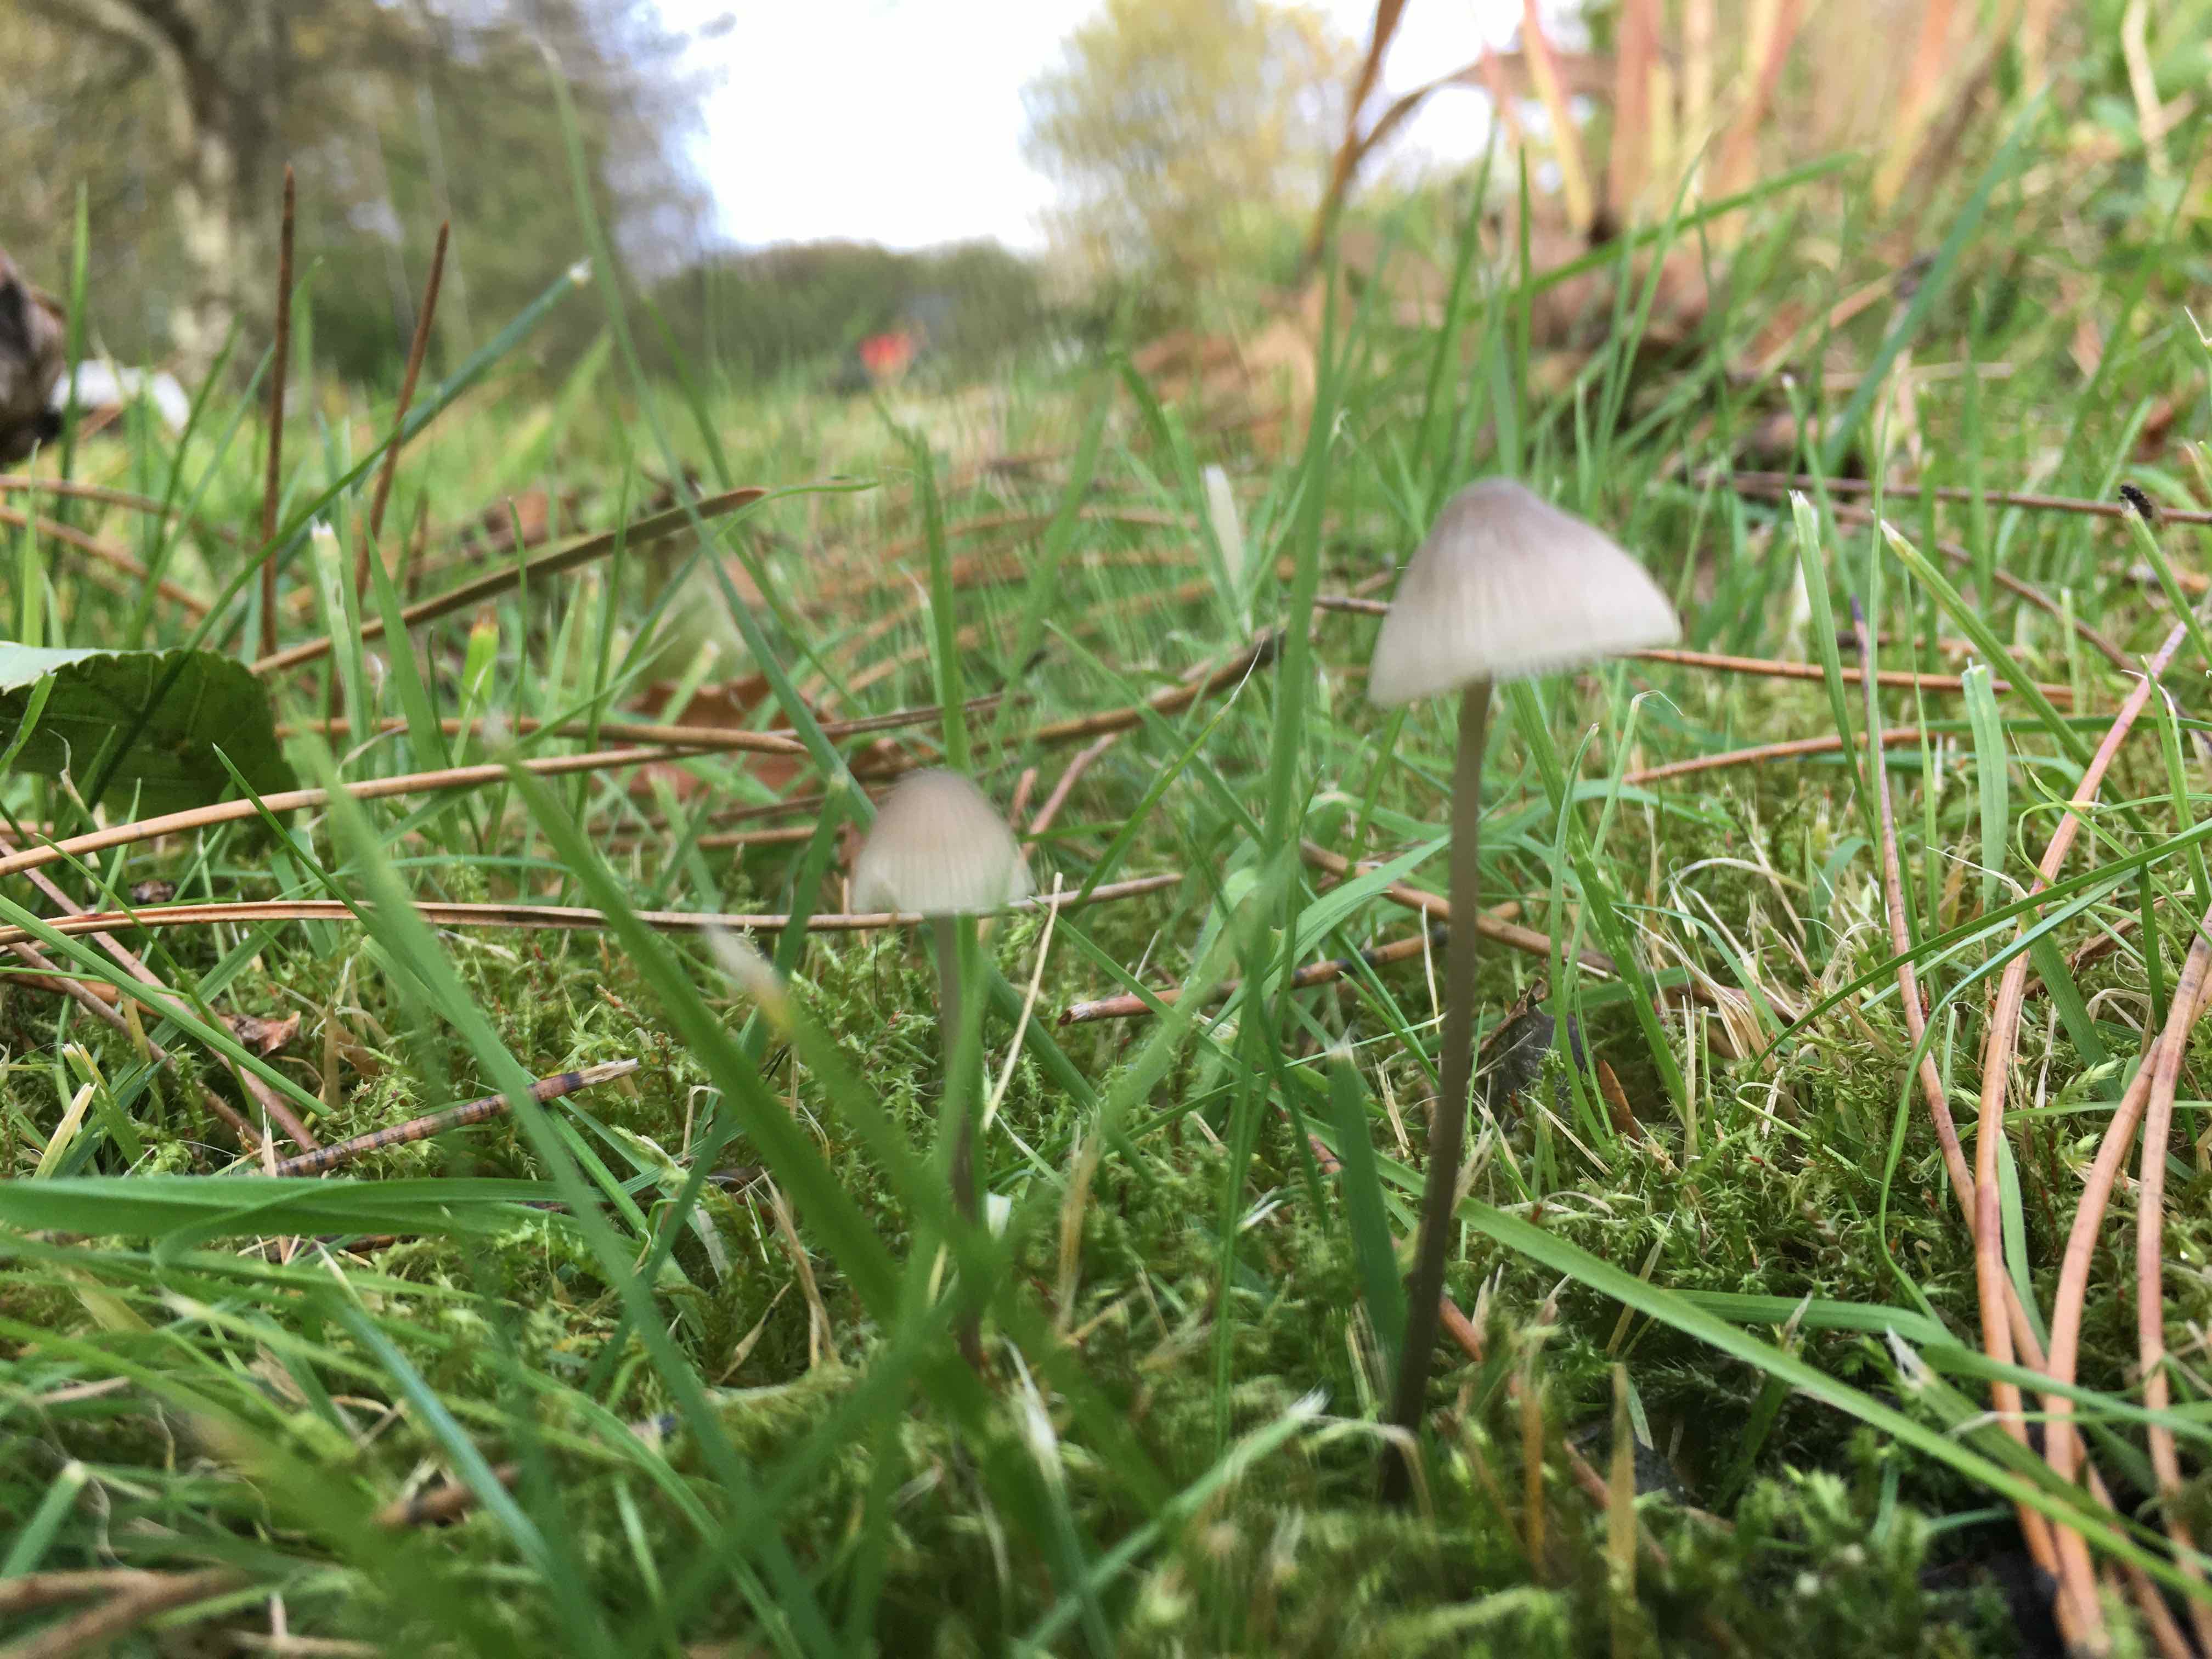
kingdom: Fungi
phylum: Basidiomycota
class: Agaricomycetes
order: Agaricales
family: Mycenaceae
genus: Mycena
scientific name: Mycena
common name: huesvamp
